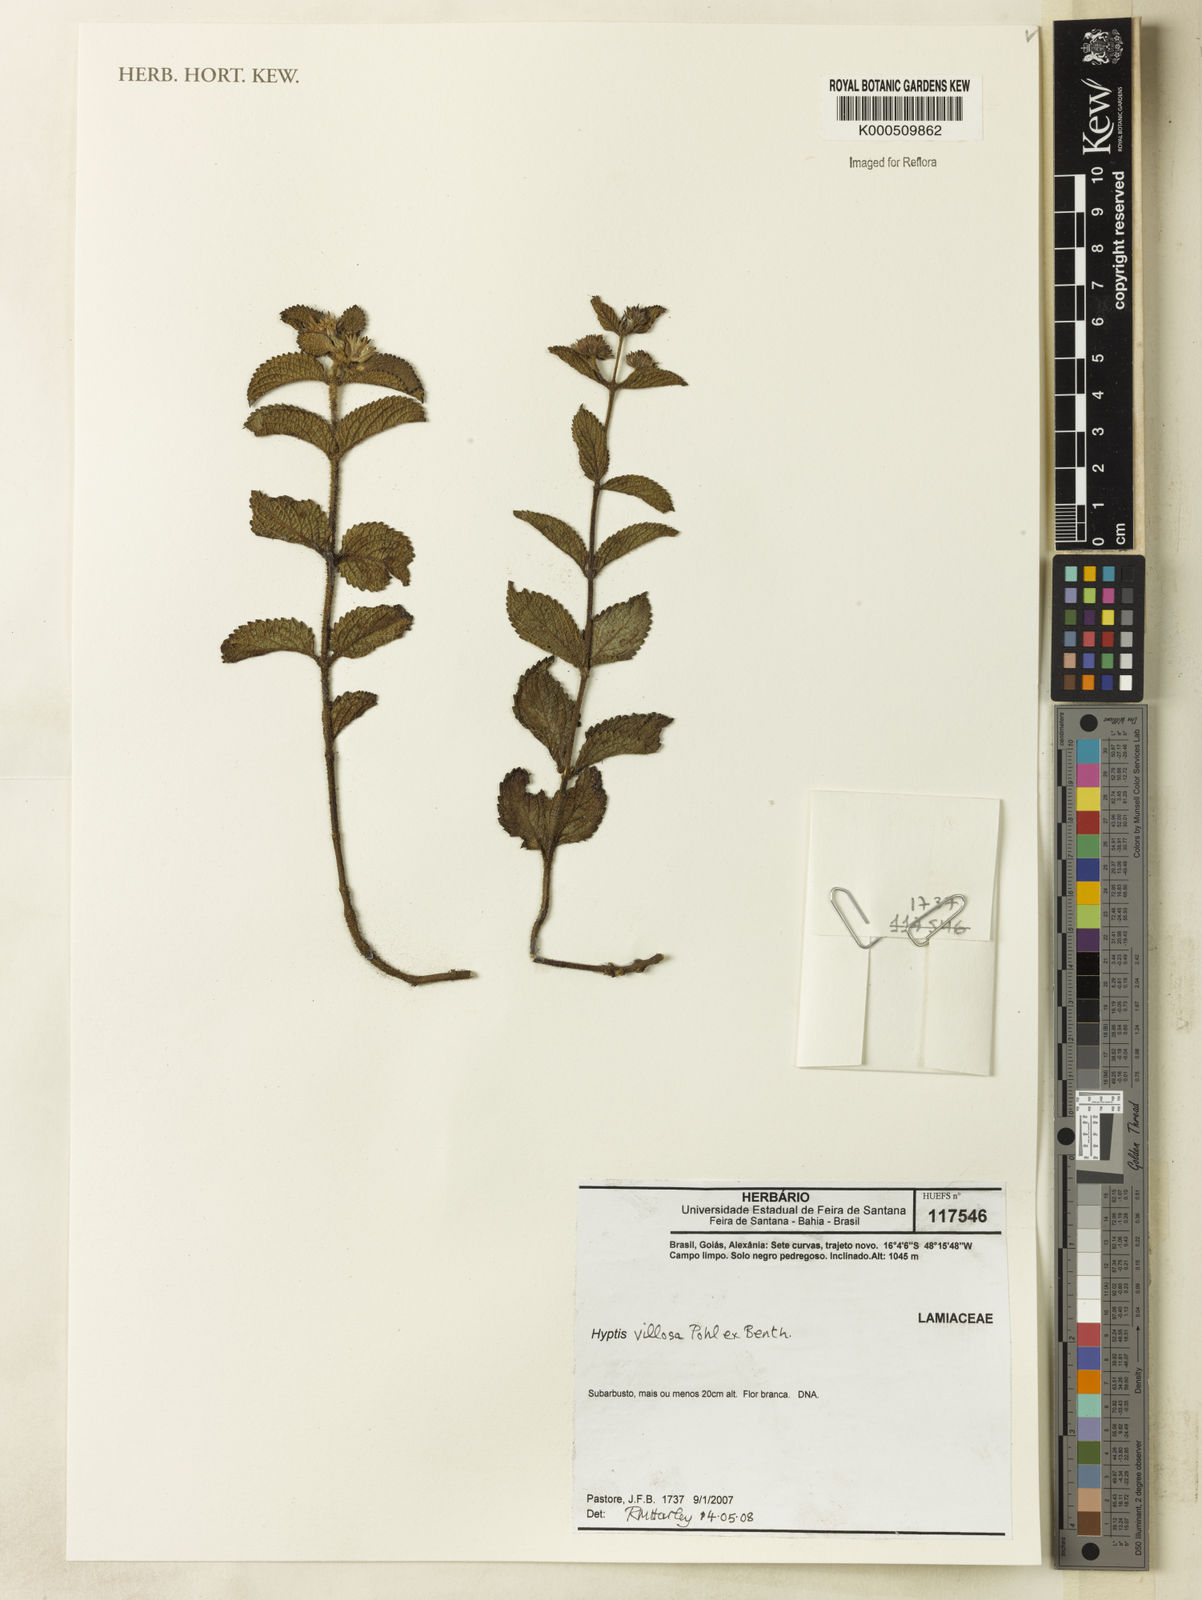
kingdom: Plantae
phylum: Tracheophyta
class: Magnoliopsida
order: Lamiales
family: Lamiaceae
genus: Hyptis
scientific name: Hyptis villosa
